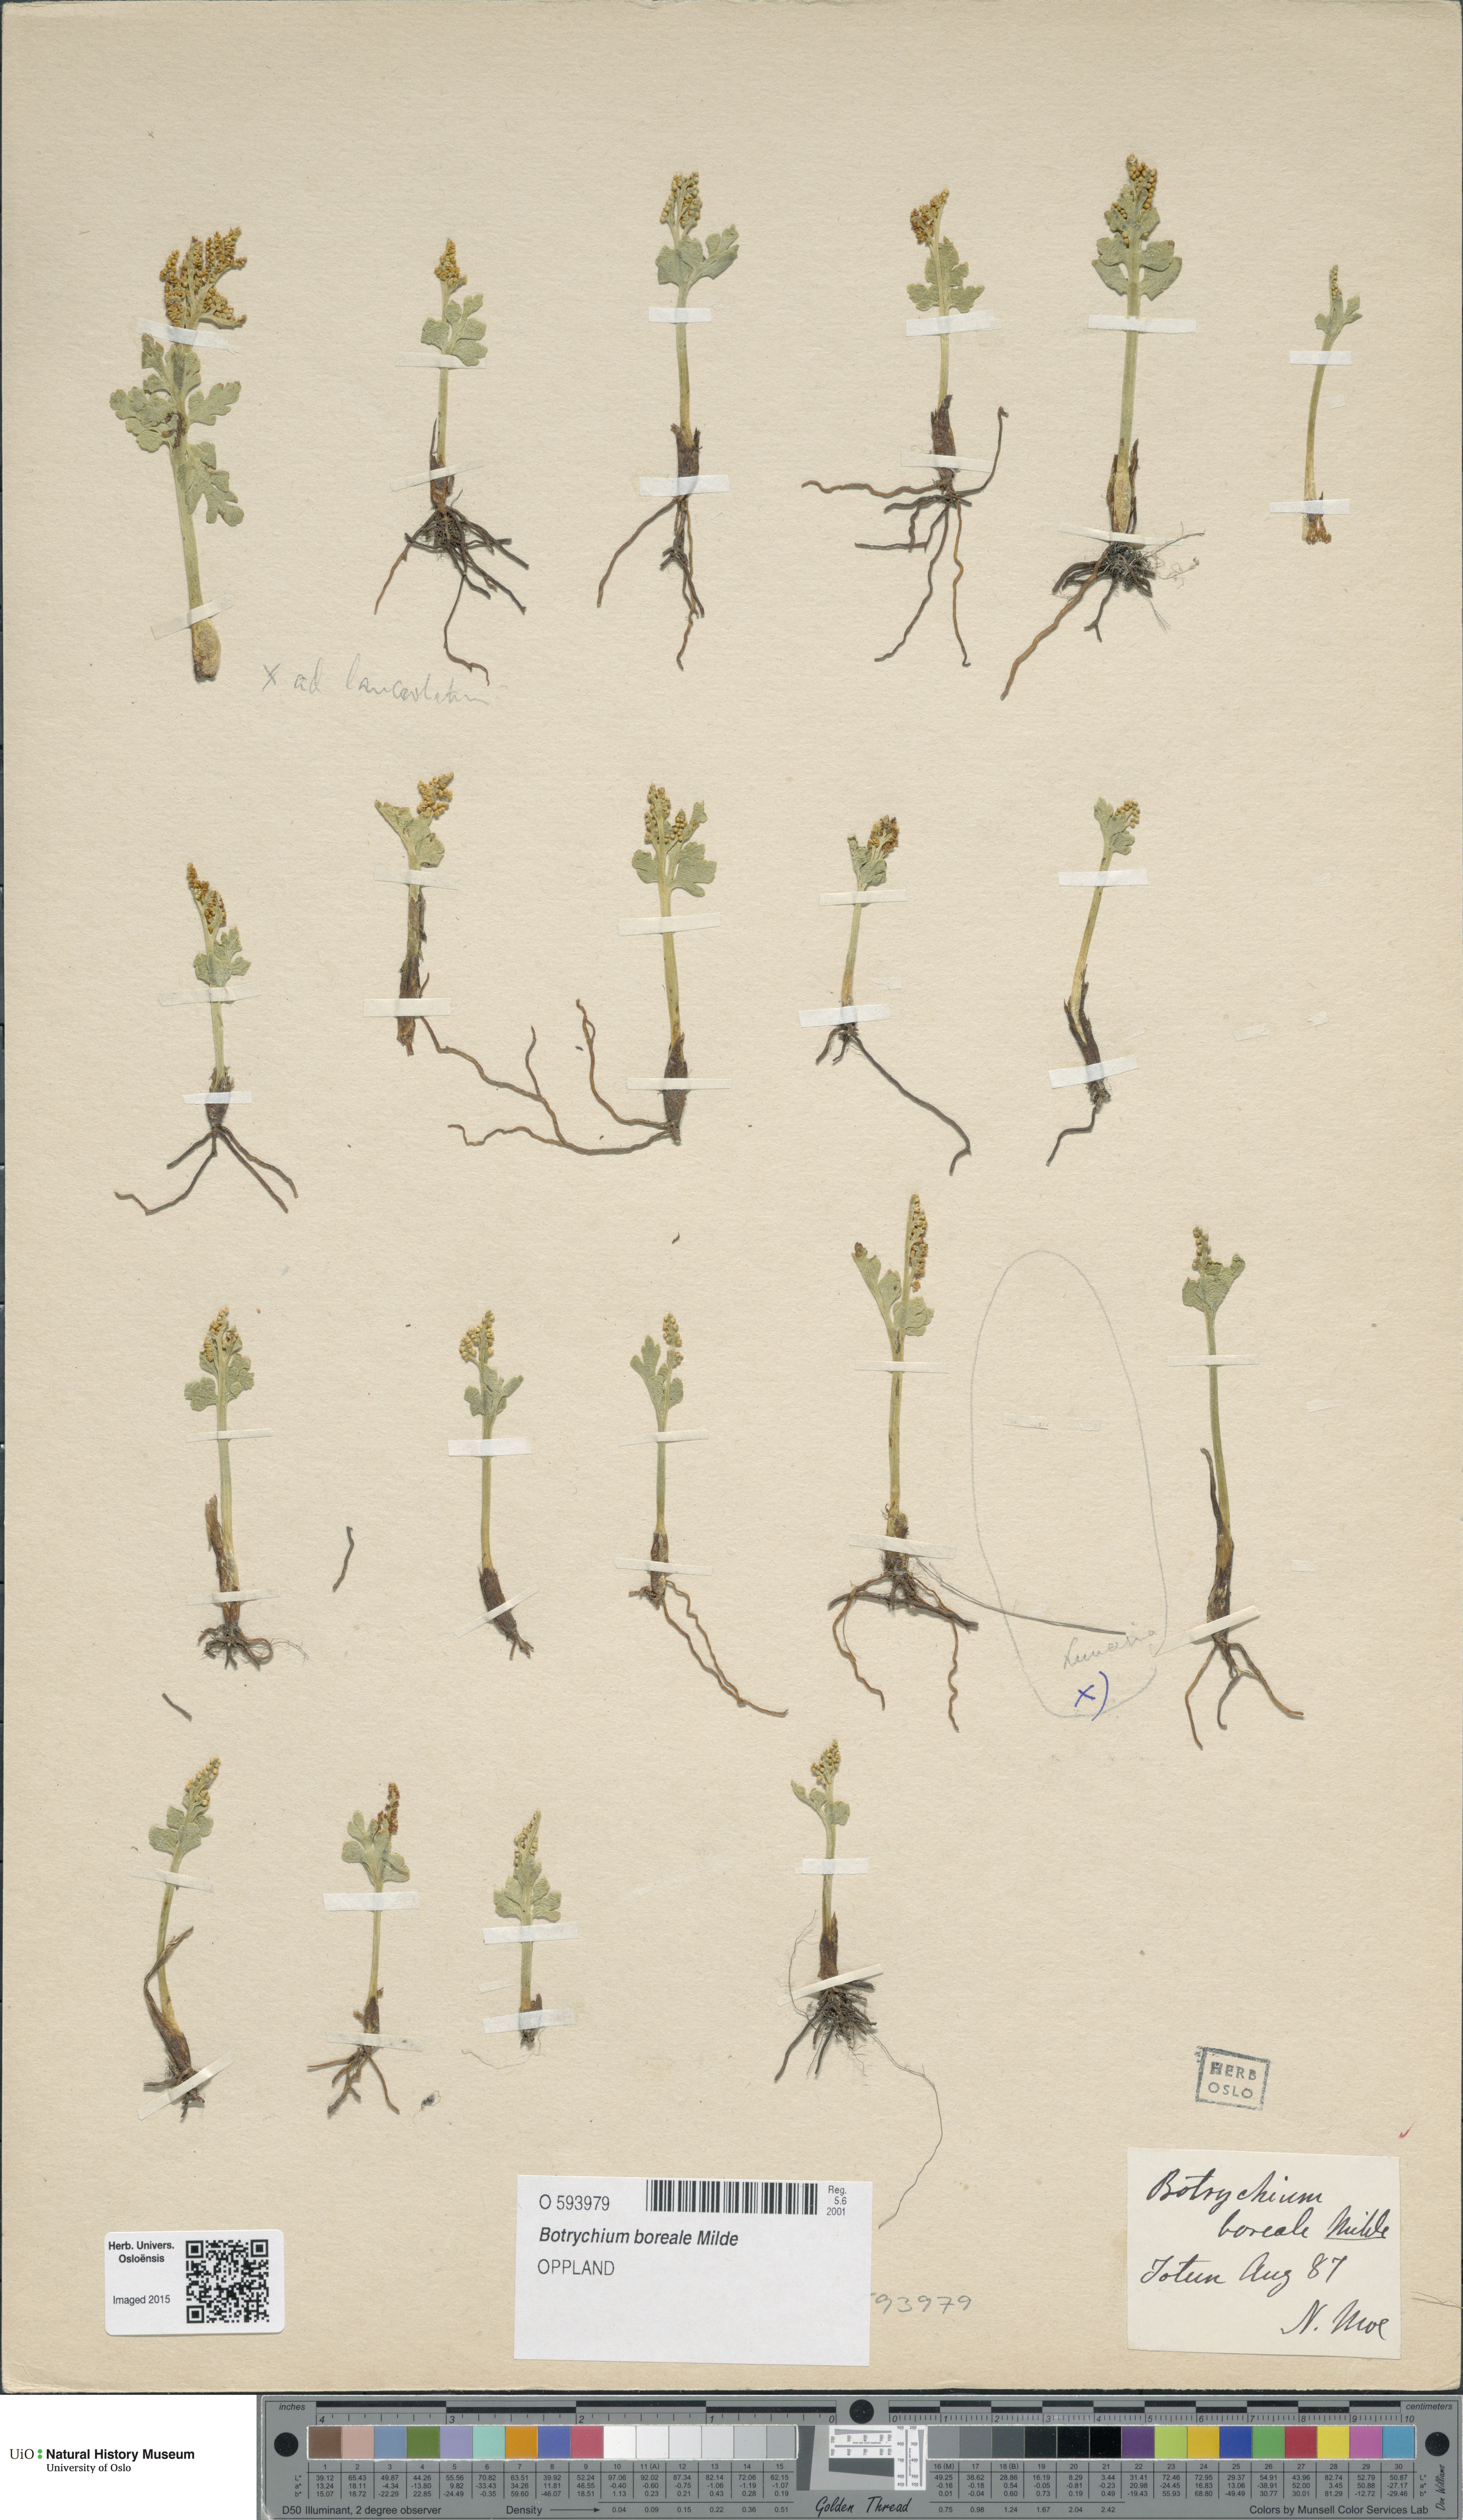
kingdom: Plantae
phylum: Tracheophyta
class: Polypodiopsida
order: Ophioglossales
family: Ophioglossaceae
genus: Botrychium
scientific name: Botrychium boreale
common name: Boreal moonwort
